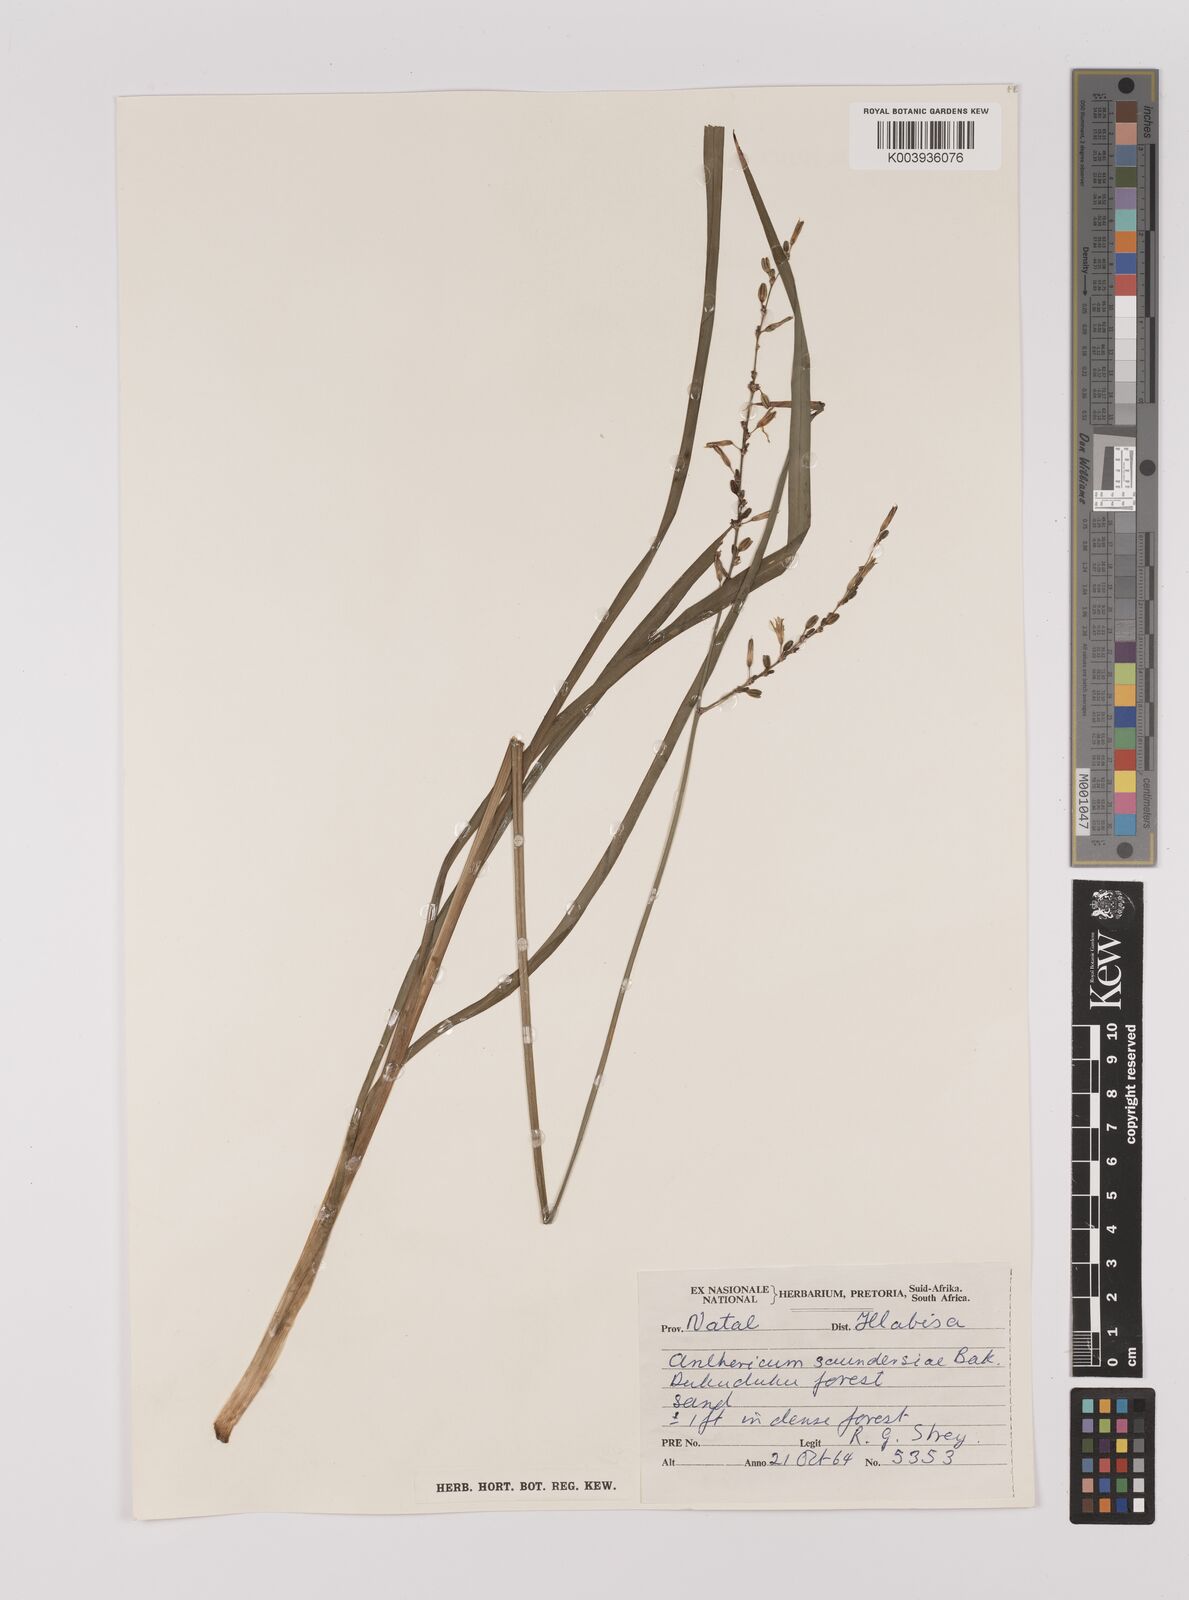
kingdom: Plantae
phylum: Tracheophyta
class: Liliopsida
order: Asparagales
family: Asparagaceae
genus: Chlorophytum
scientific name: Chlorophytum saundersiae
